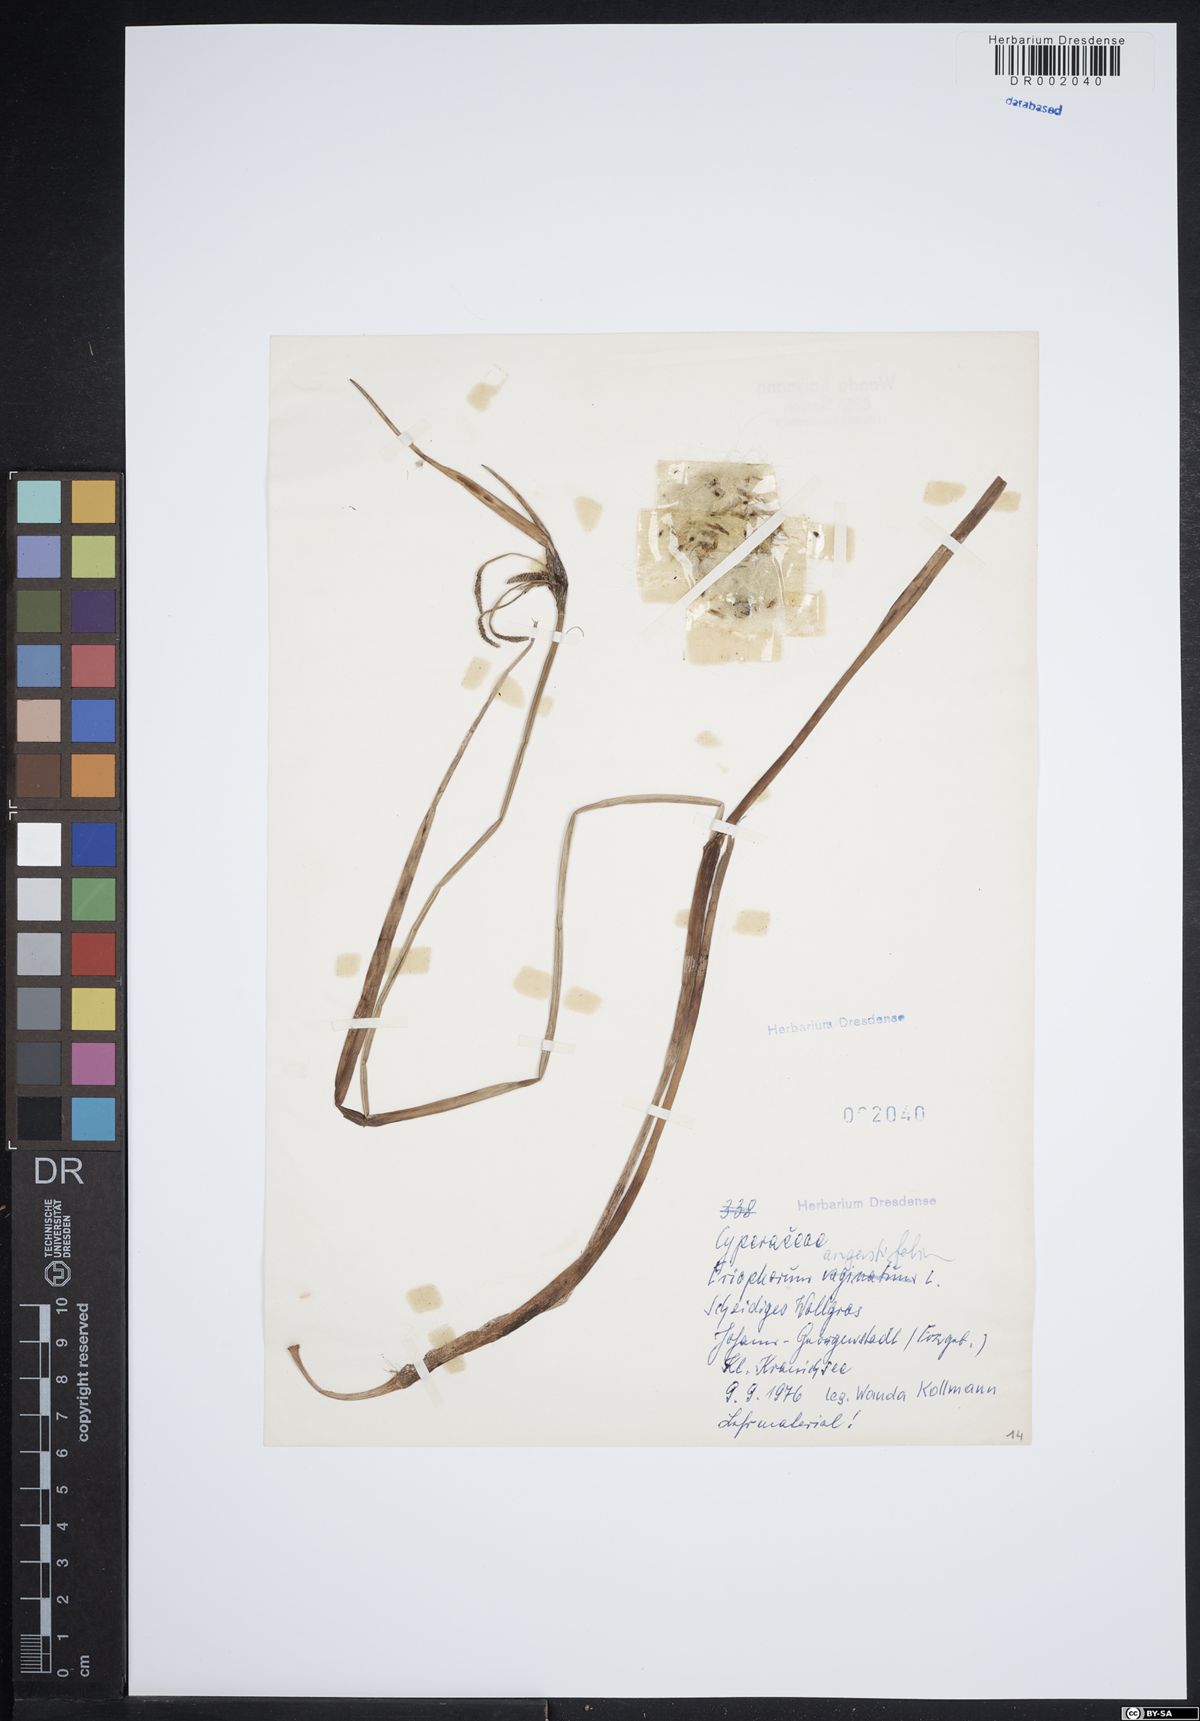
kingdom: Plantae
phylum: Tracheophyta
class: Liliopsida
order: Poales
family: Cyperaceae
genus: Eriophorum
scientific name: Eriophorum angustifolium
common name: Common cottongrass
